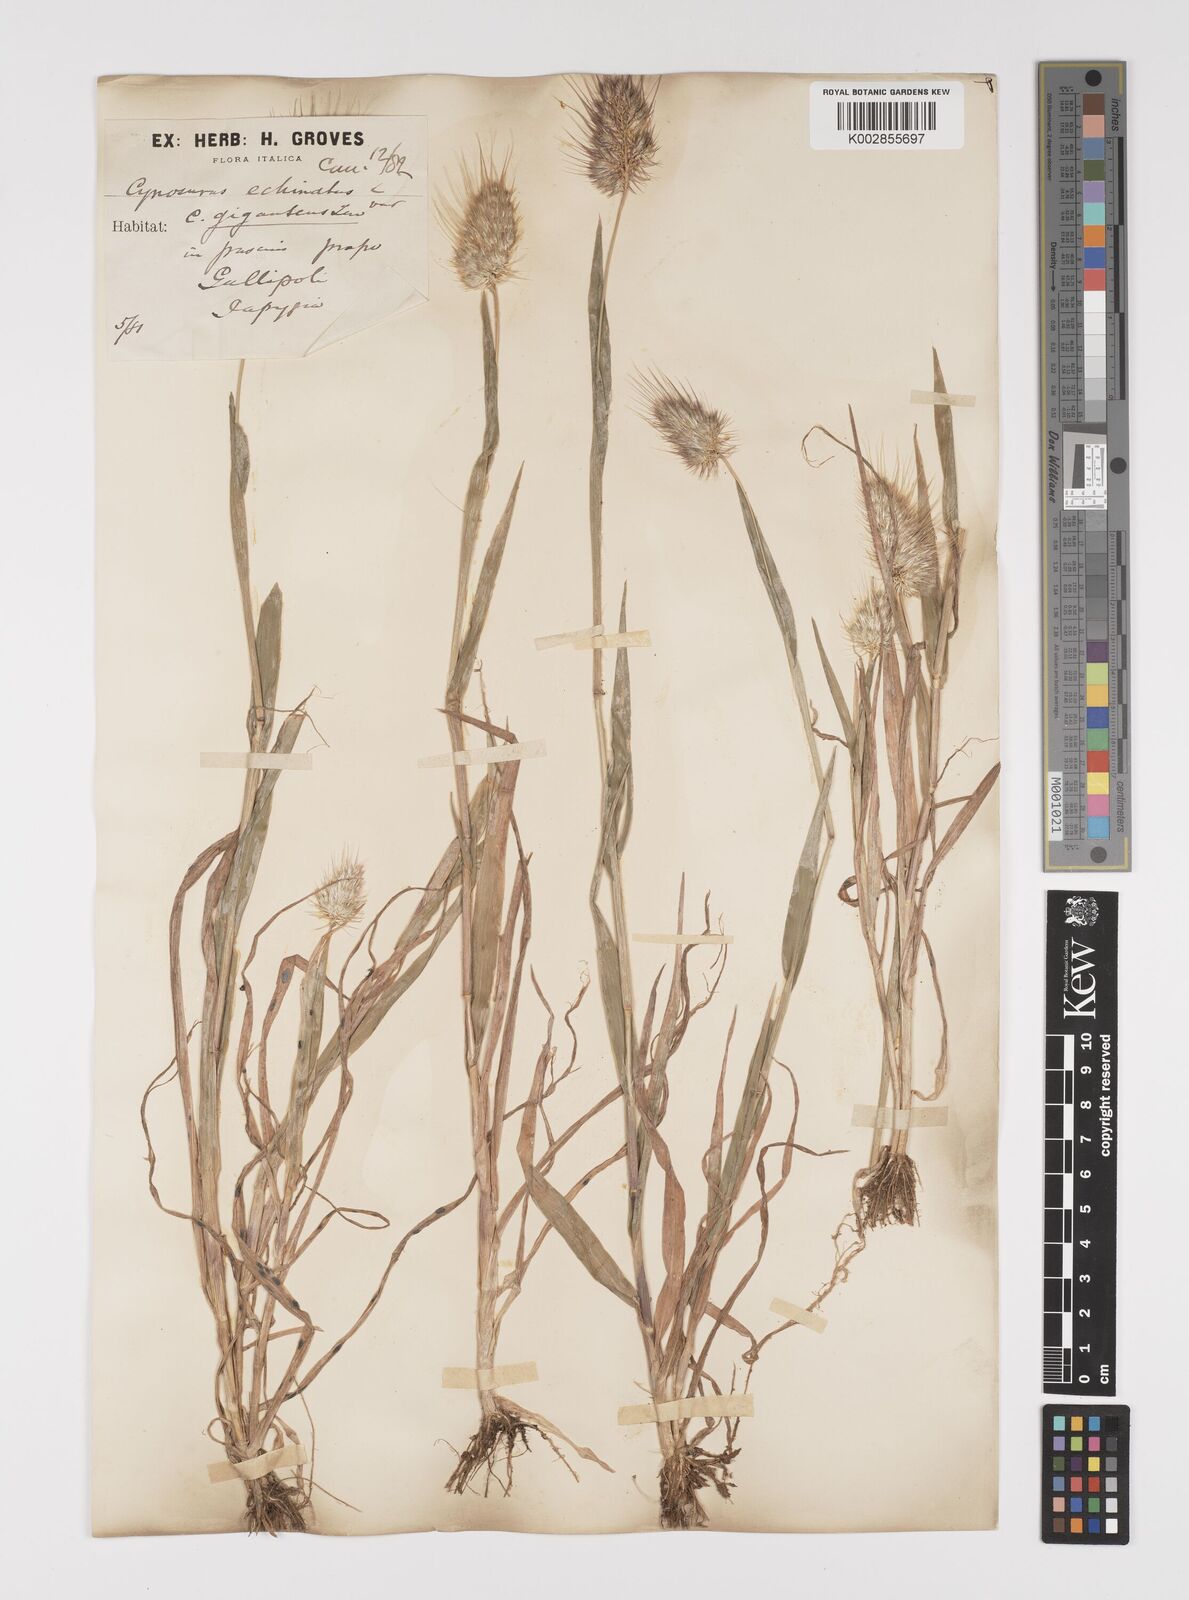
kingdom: Plantae
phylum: Tracheophyta
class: Liliopsida
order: Poales
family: Poaceae
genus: Cynosurus
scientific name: Cynosurus echinatus
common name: Rough dog's-tail
